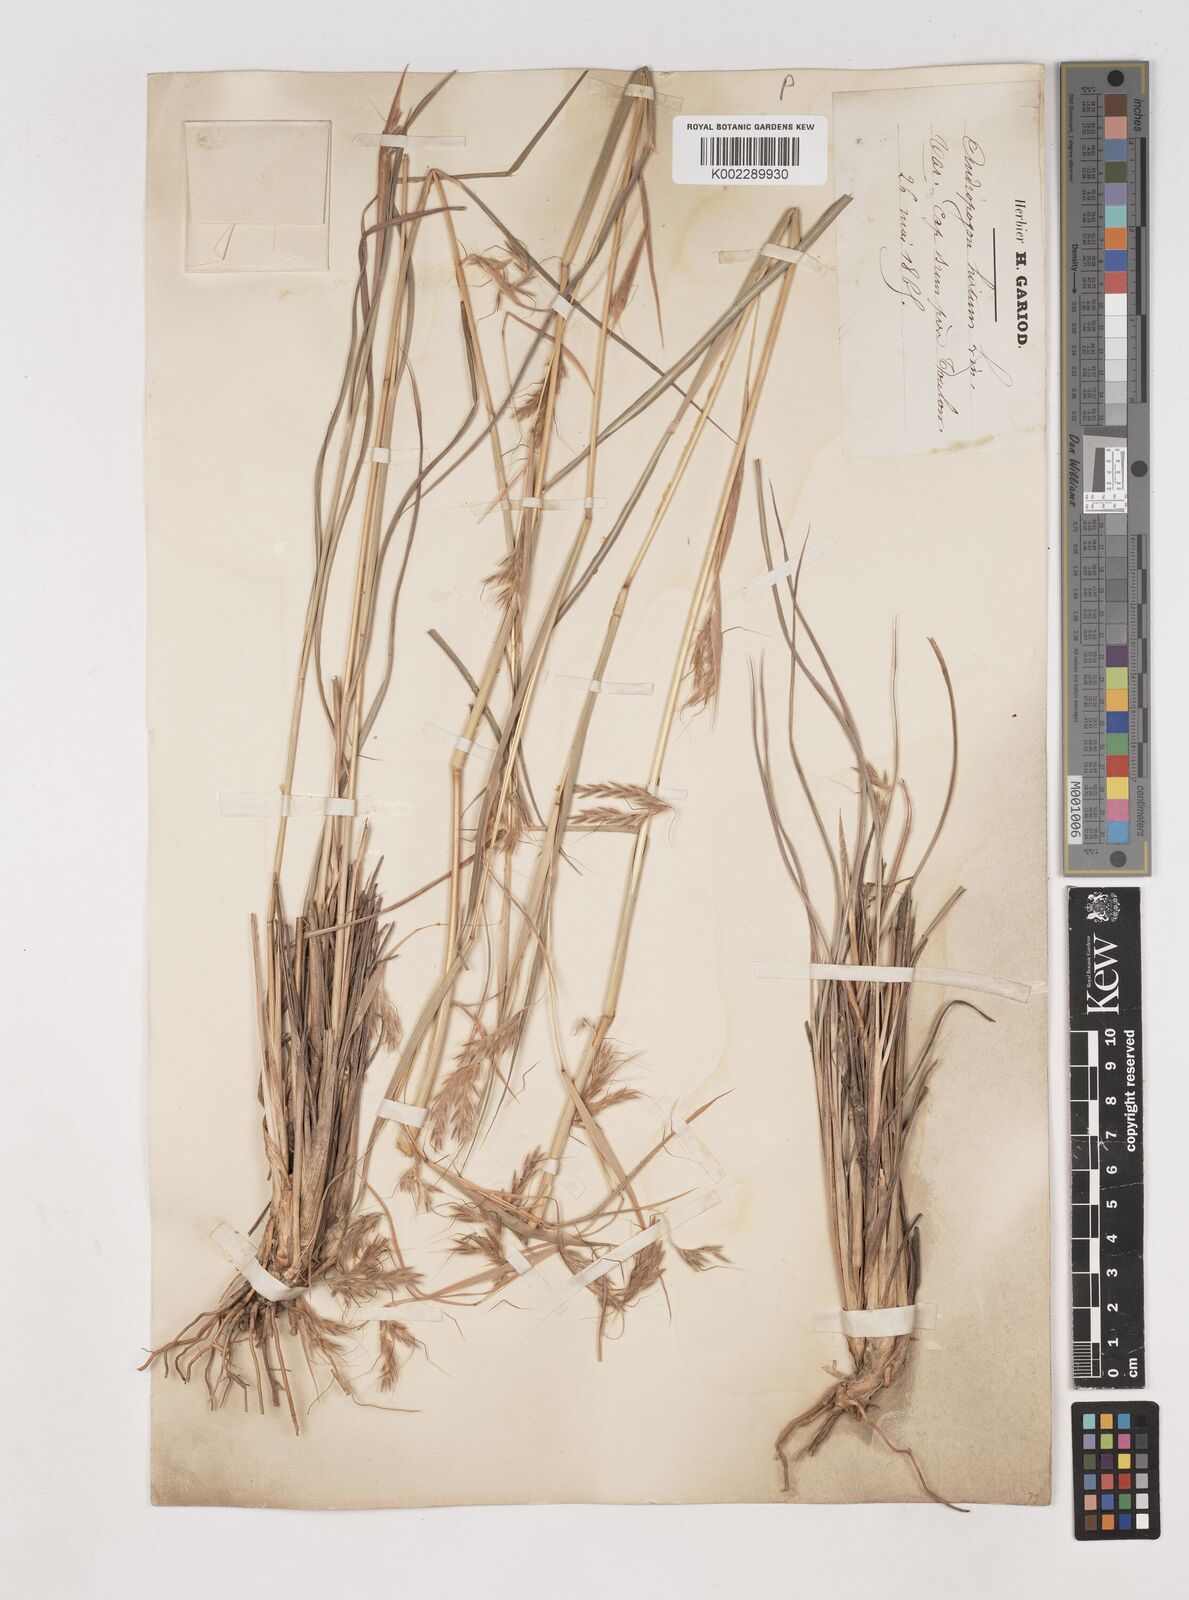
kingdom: Plantae
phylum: Tracheophyta
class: Liliopsida
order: Poales
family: Poaceae
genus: Hyparrhenia
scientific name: Hyparrhenia hirta
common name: Thatching grass
